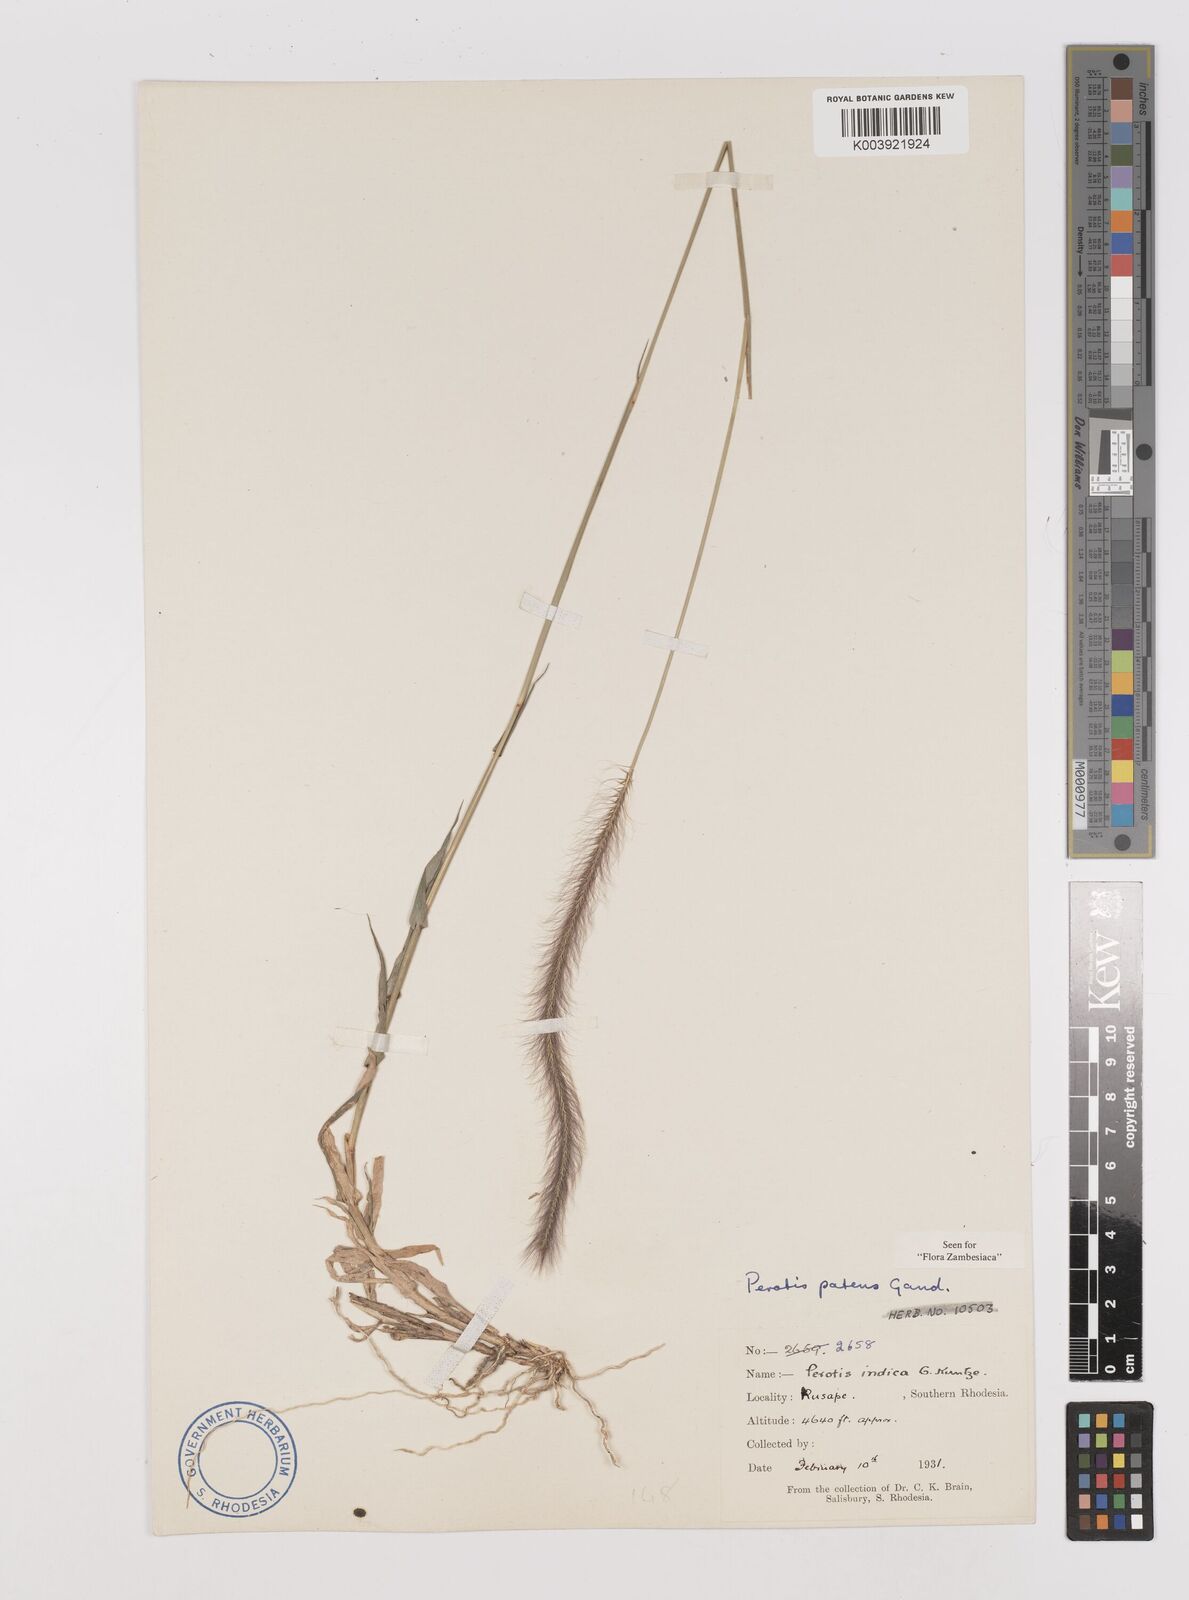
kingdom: Plantae
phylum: Tracheophyta
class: Liliopsida
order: Poales
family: Poaceae
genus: Perotis
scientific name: Perotis patens
